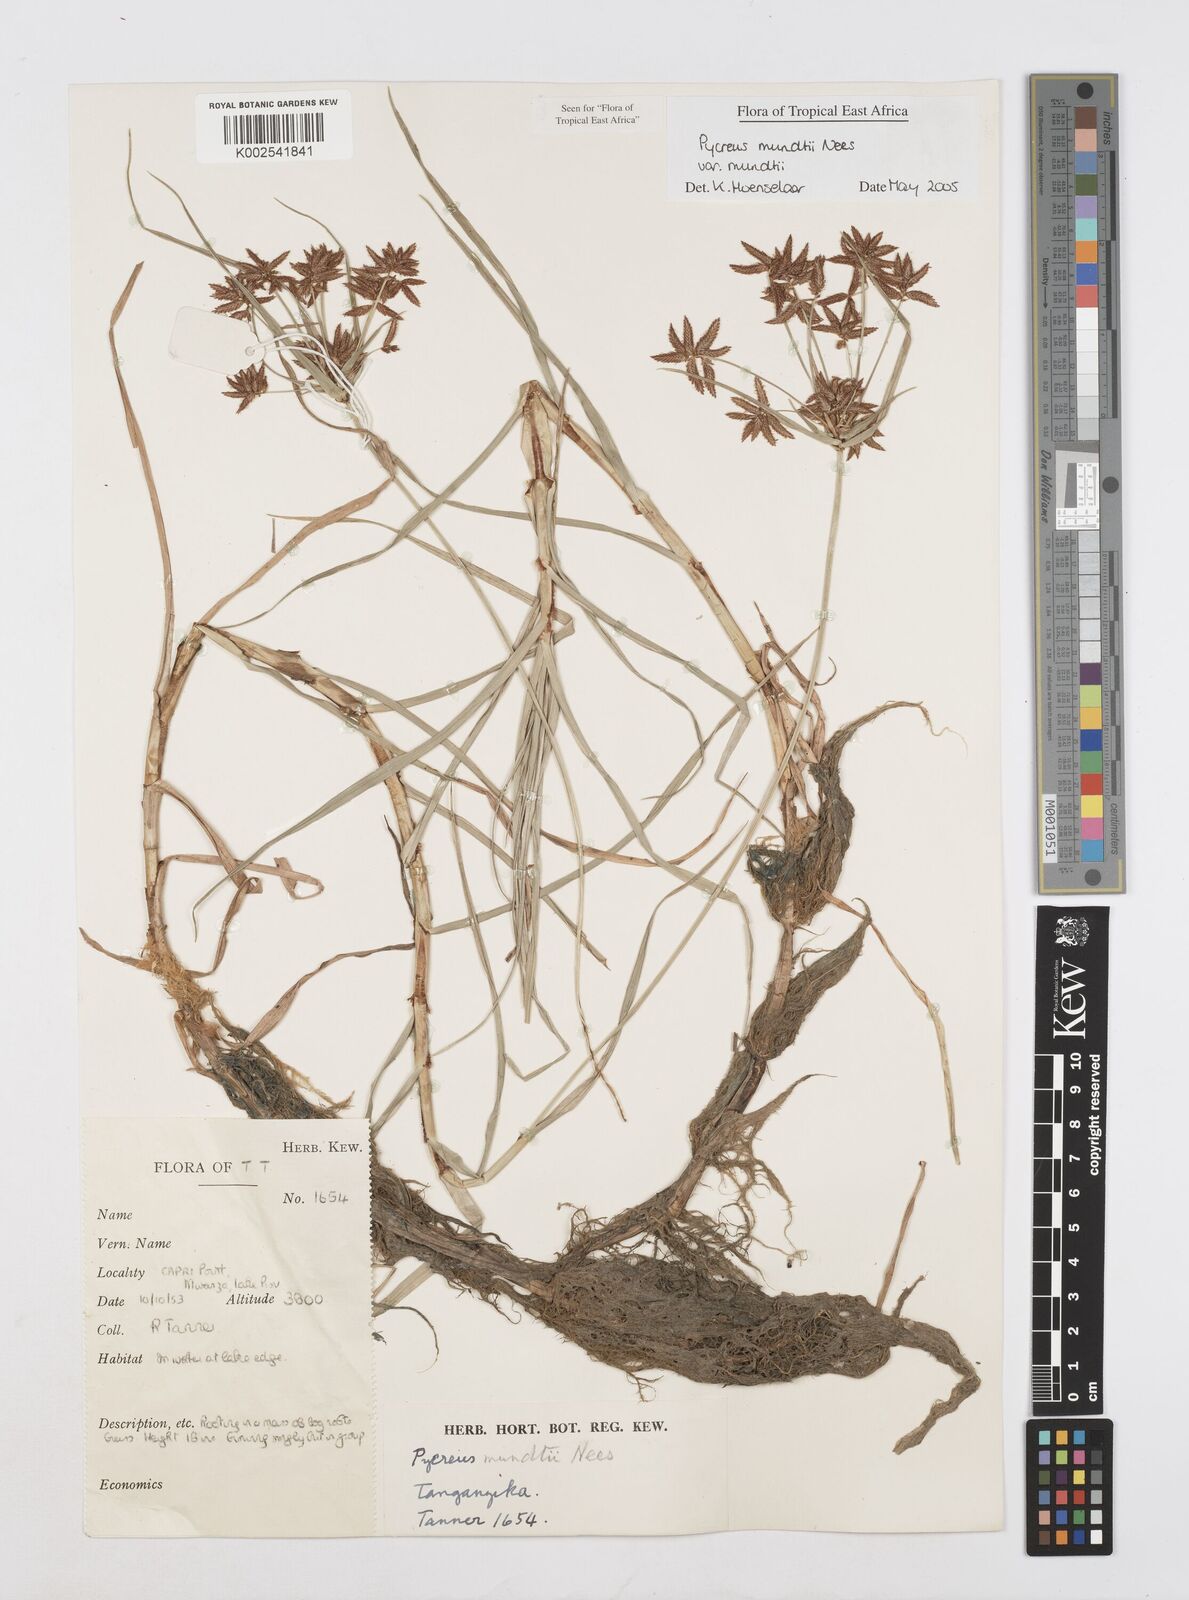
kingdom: Plantae
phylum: Tracheophyta
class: Liliopsida
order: Poales
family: Cyperaceae
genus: Cyperus
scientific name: Cyperus mundii
